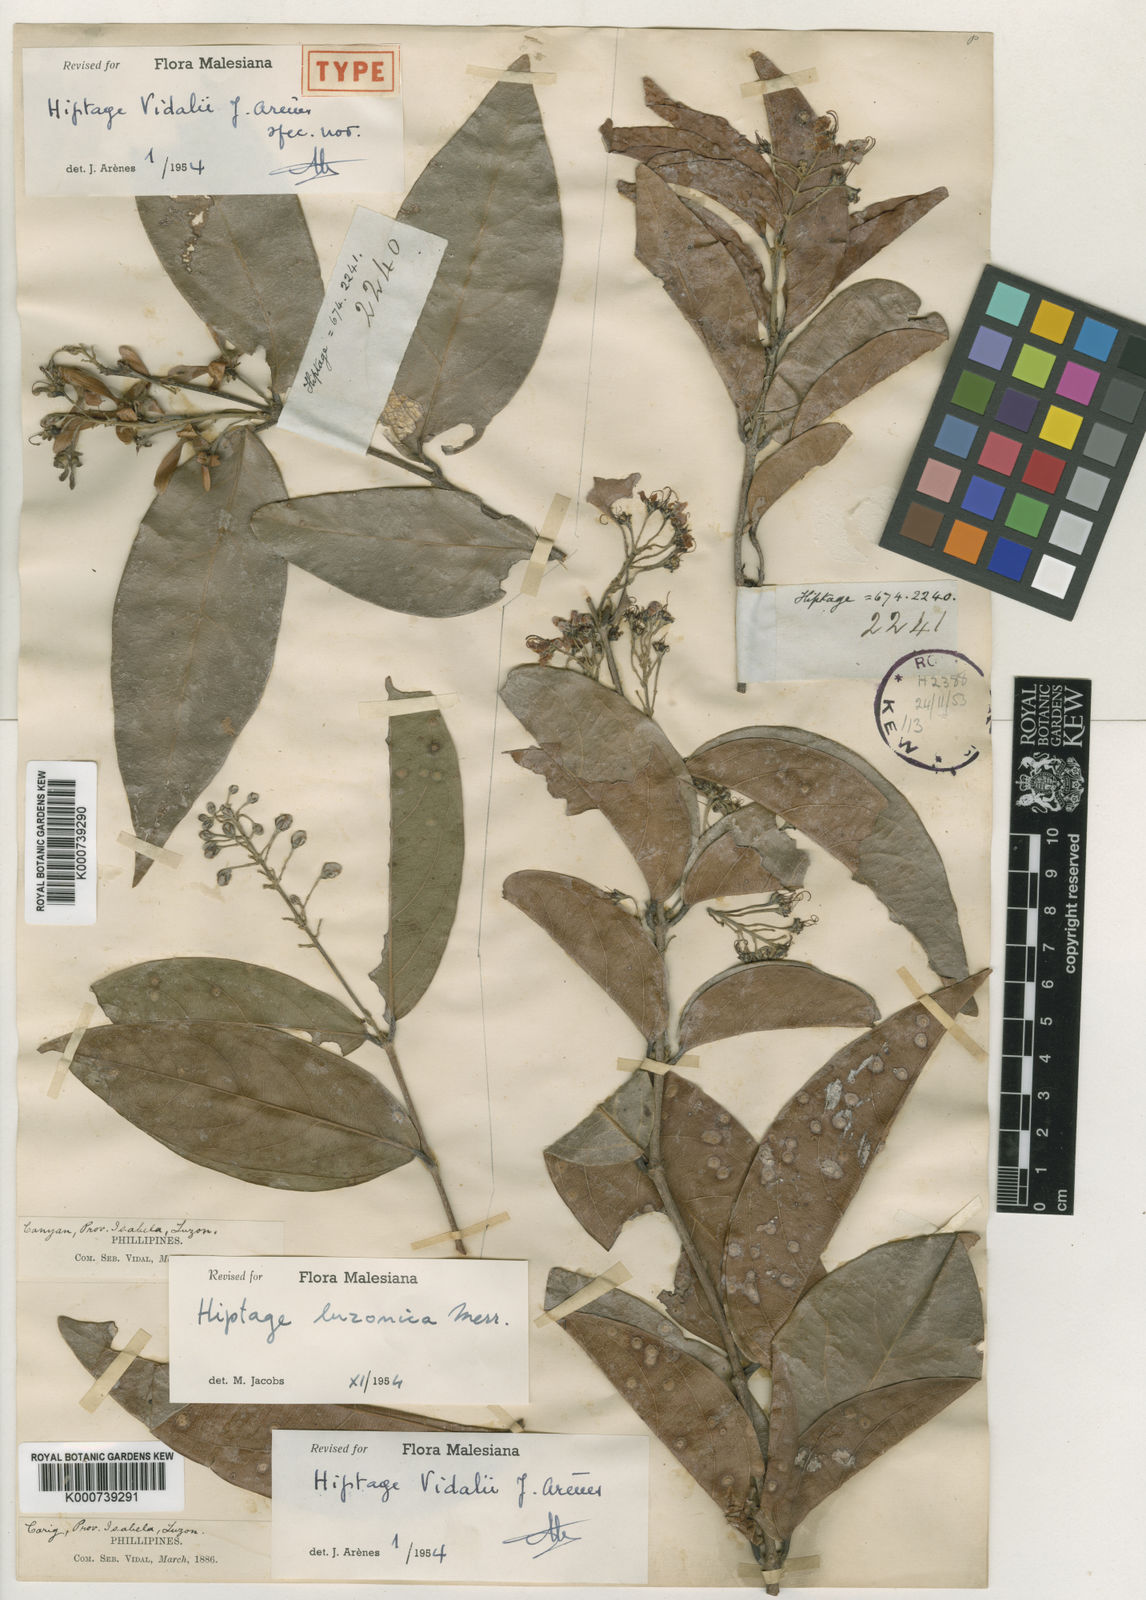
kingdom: Plantae
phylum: Tracheophyta
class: Magnoliopsida
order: Malpighiales
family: Malpighiaceae
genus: Hiptage
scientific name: Hiptage luzonica
